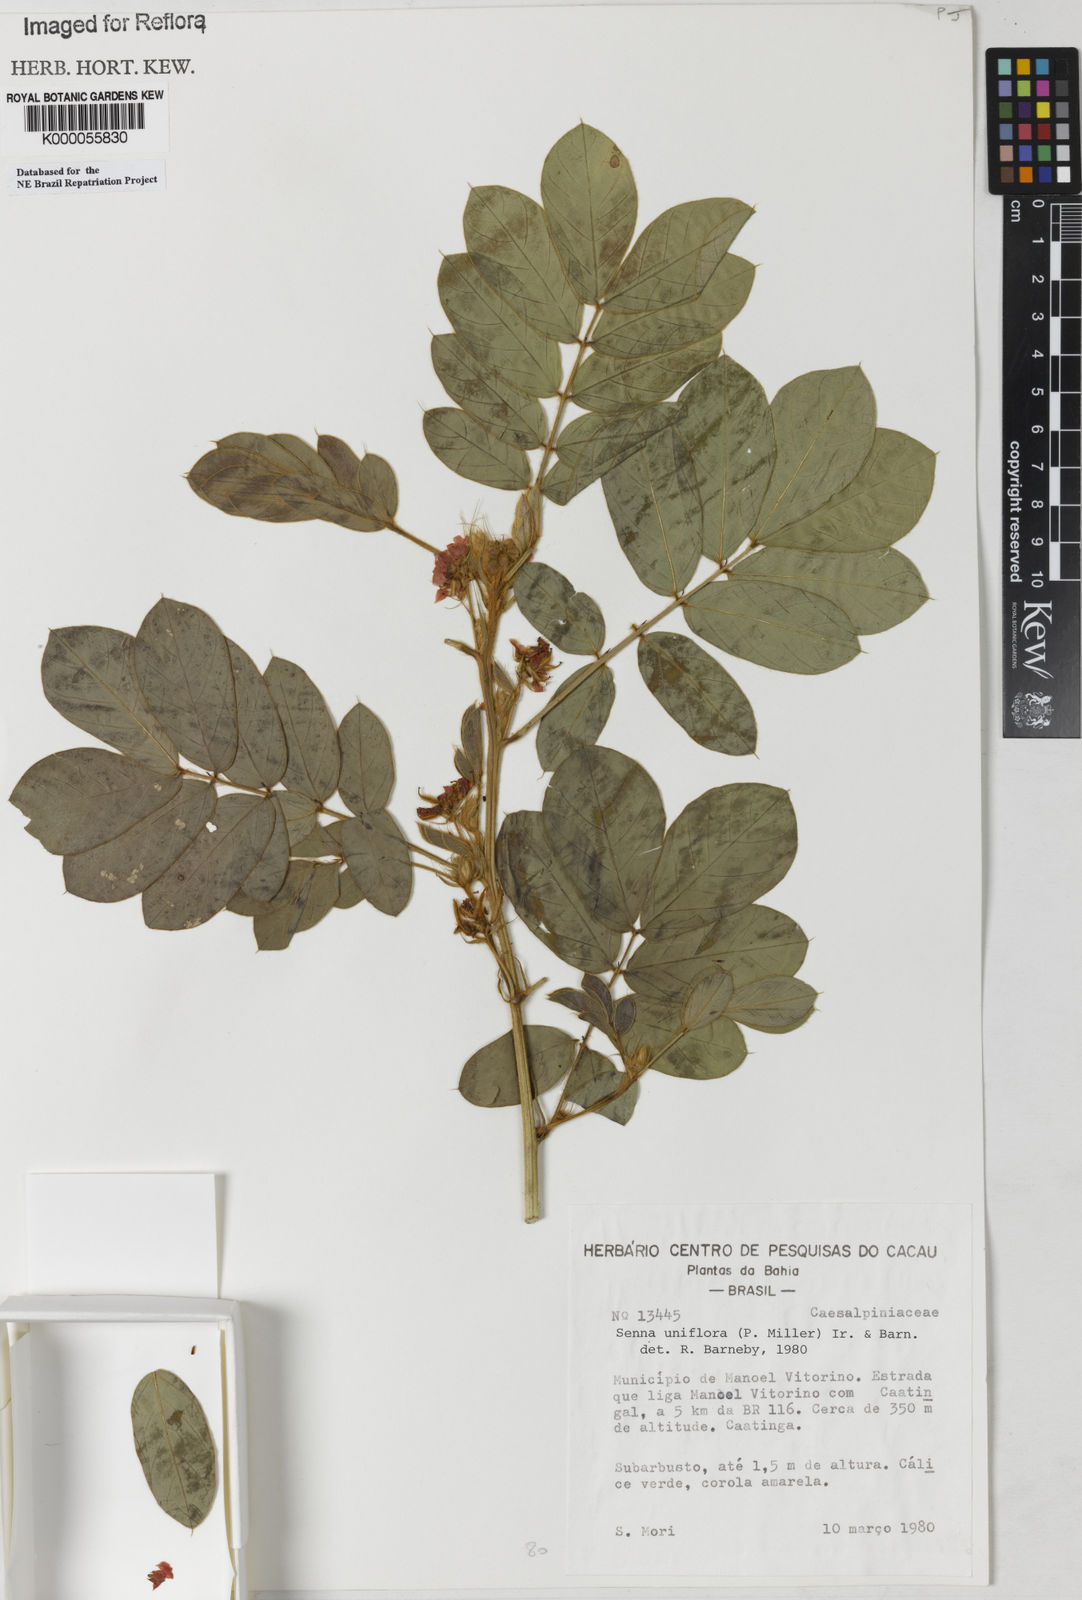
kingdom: Plantae
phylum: Tracheophyta
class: Magnoliopsida
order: Fabales
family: Fabaceae
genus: Senna
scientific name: Senna uniflora
